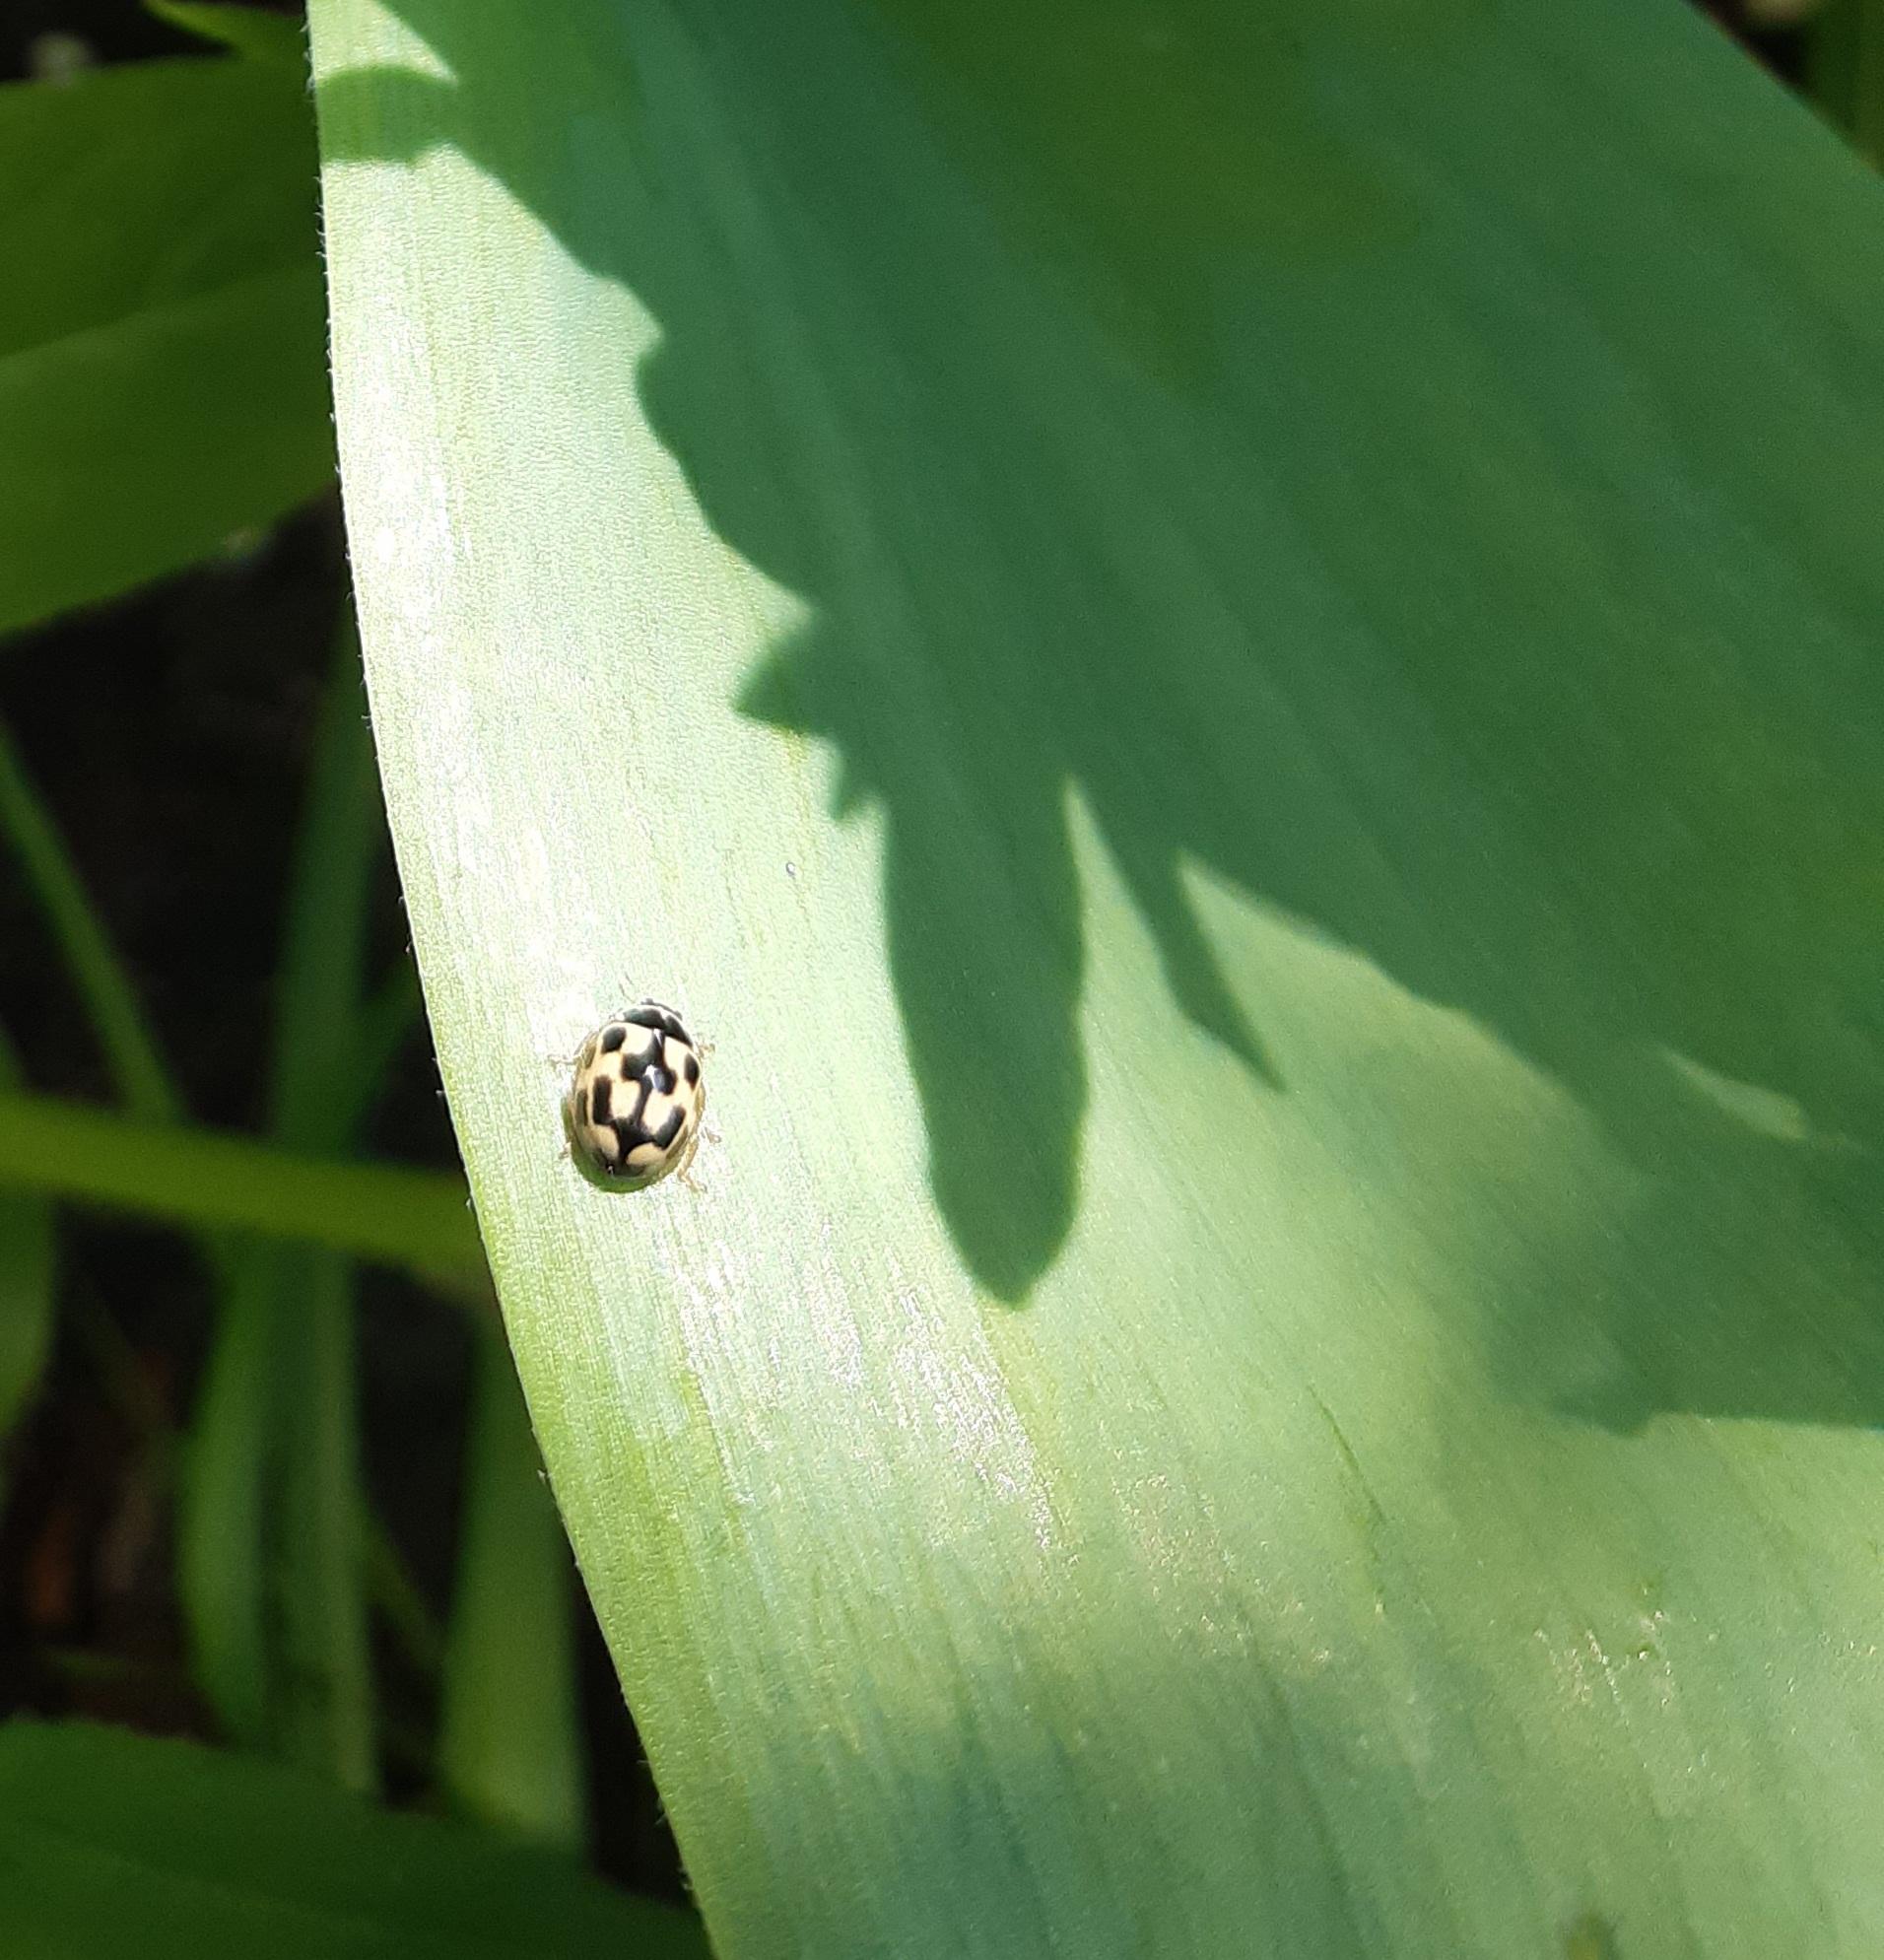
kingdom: Animalia
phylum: Arthropoda
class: Insecta
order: Coleoptera
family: Coccinellidae
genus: Propylaea
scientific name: Propylaea quatuordecimpunctata
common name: Skakbræt
